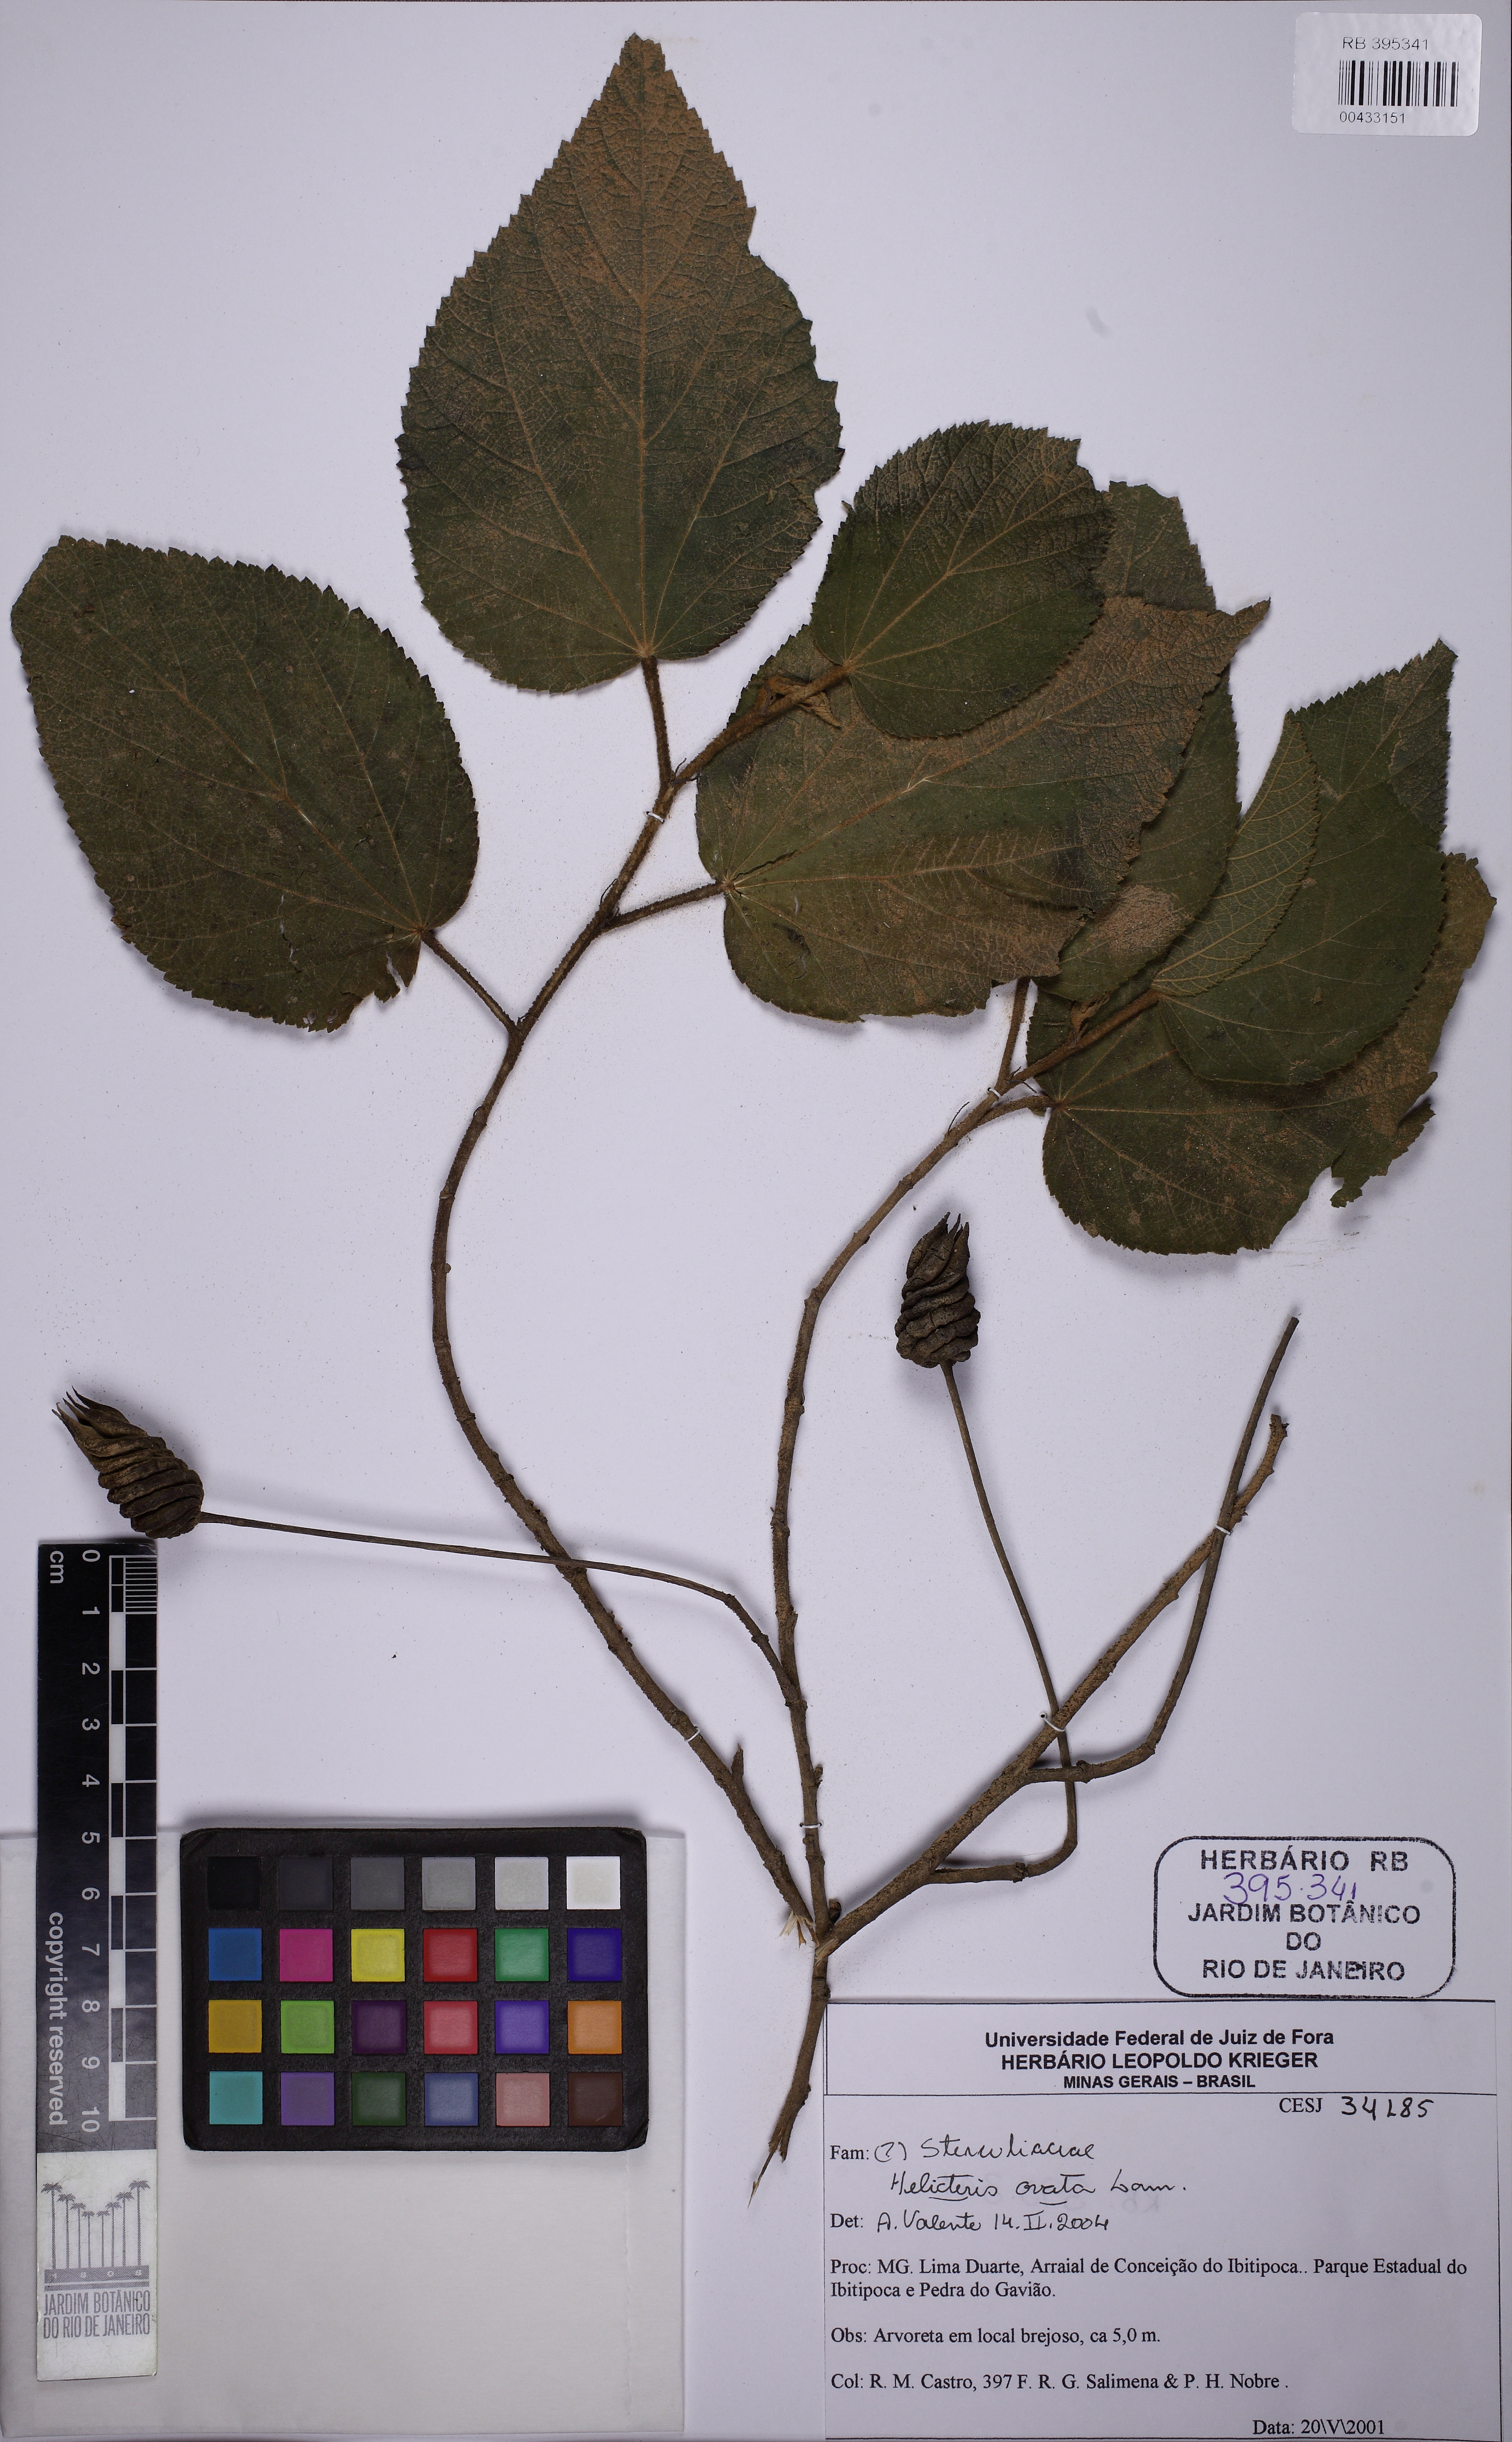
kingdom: Plantae
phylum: Tracheophyta
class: Magnoliopsida
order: Malvales
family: Malvaceae
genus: Helicteres
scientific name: Helicteres ovata
